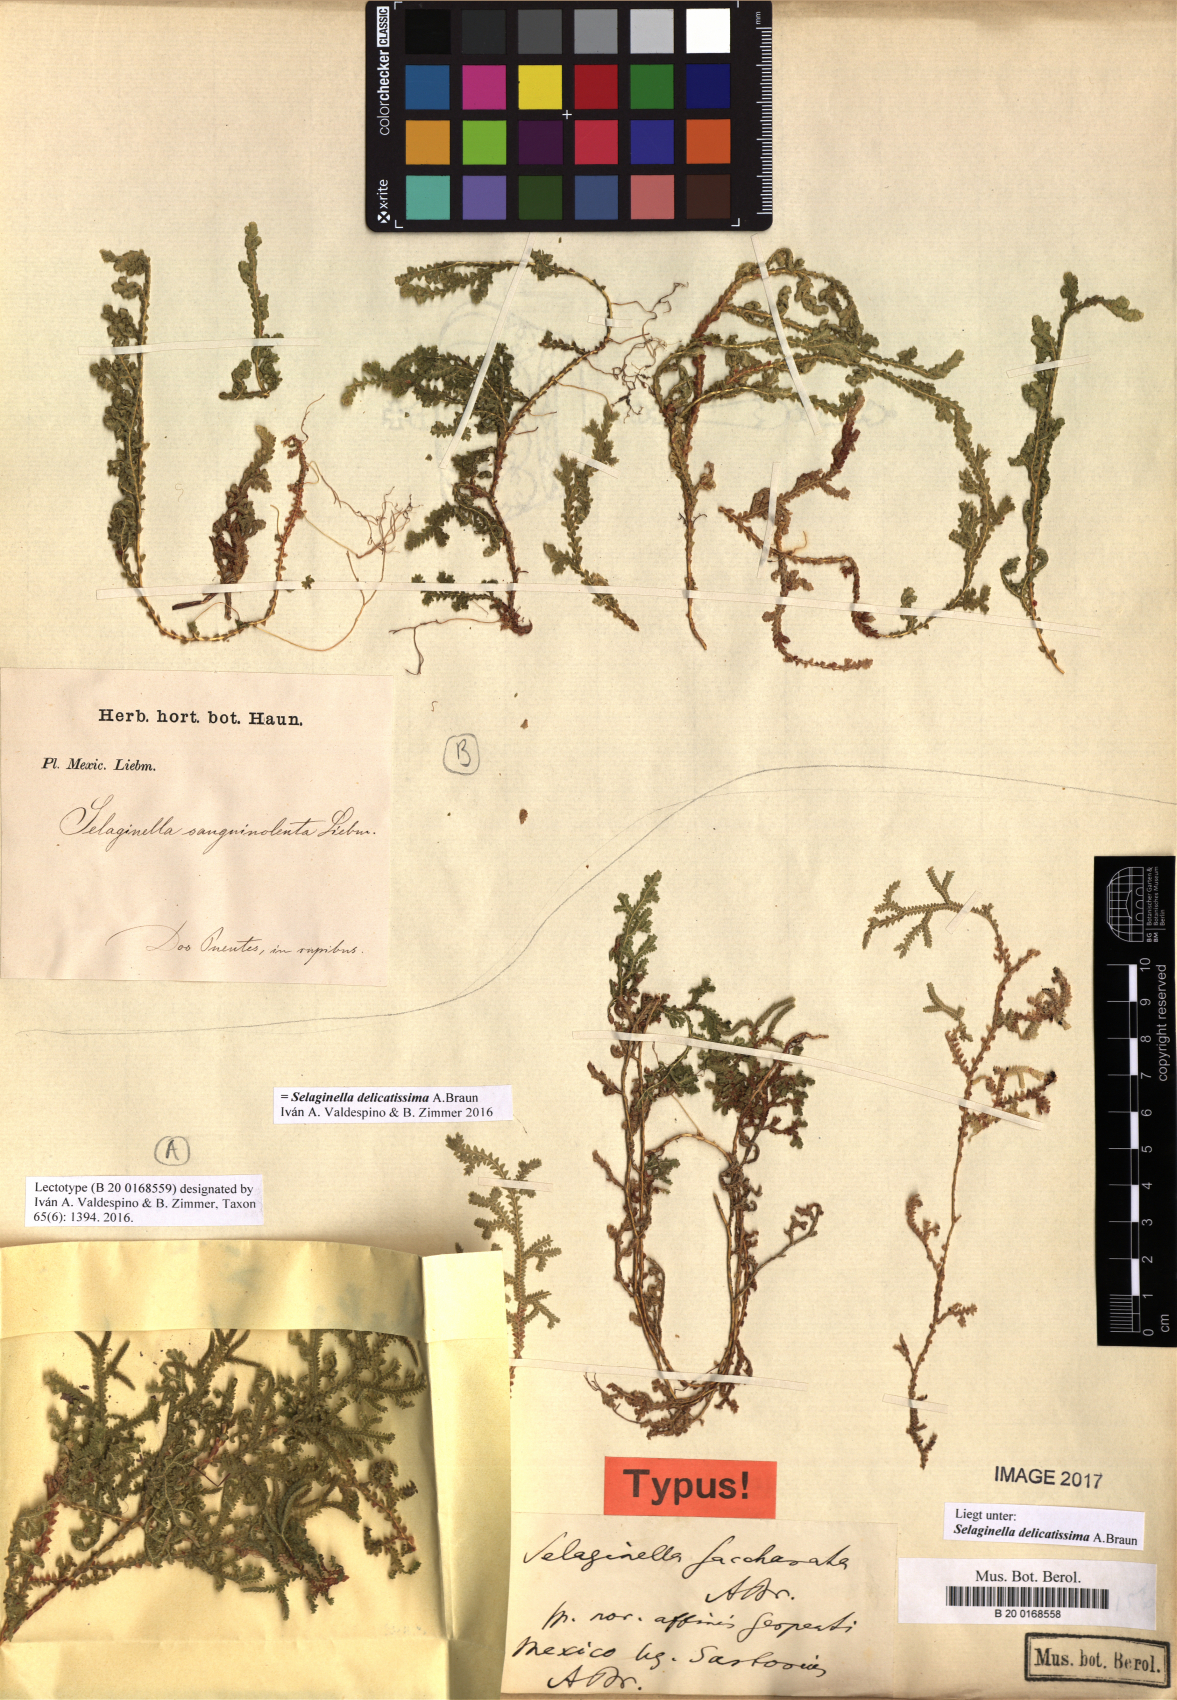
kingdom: Plantae
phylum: Tracheophyta
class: Lycopodiopsida
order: Selaginellales
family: Selaginellaceae
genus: Selaginella
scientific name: Selaginella sanguinolenta
